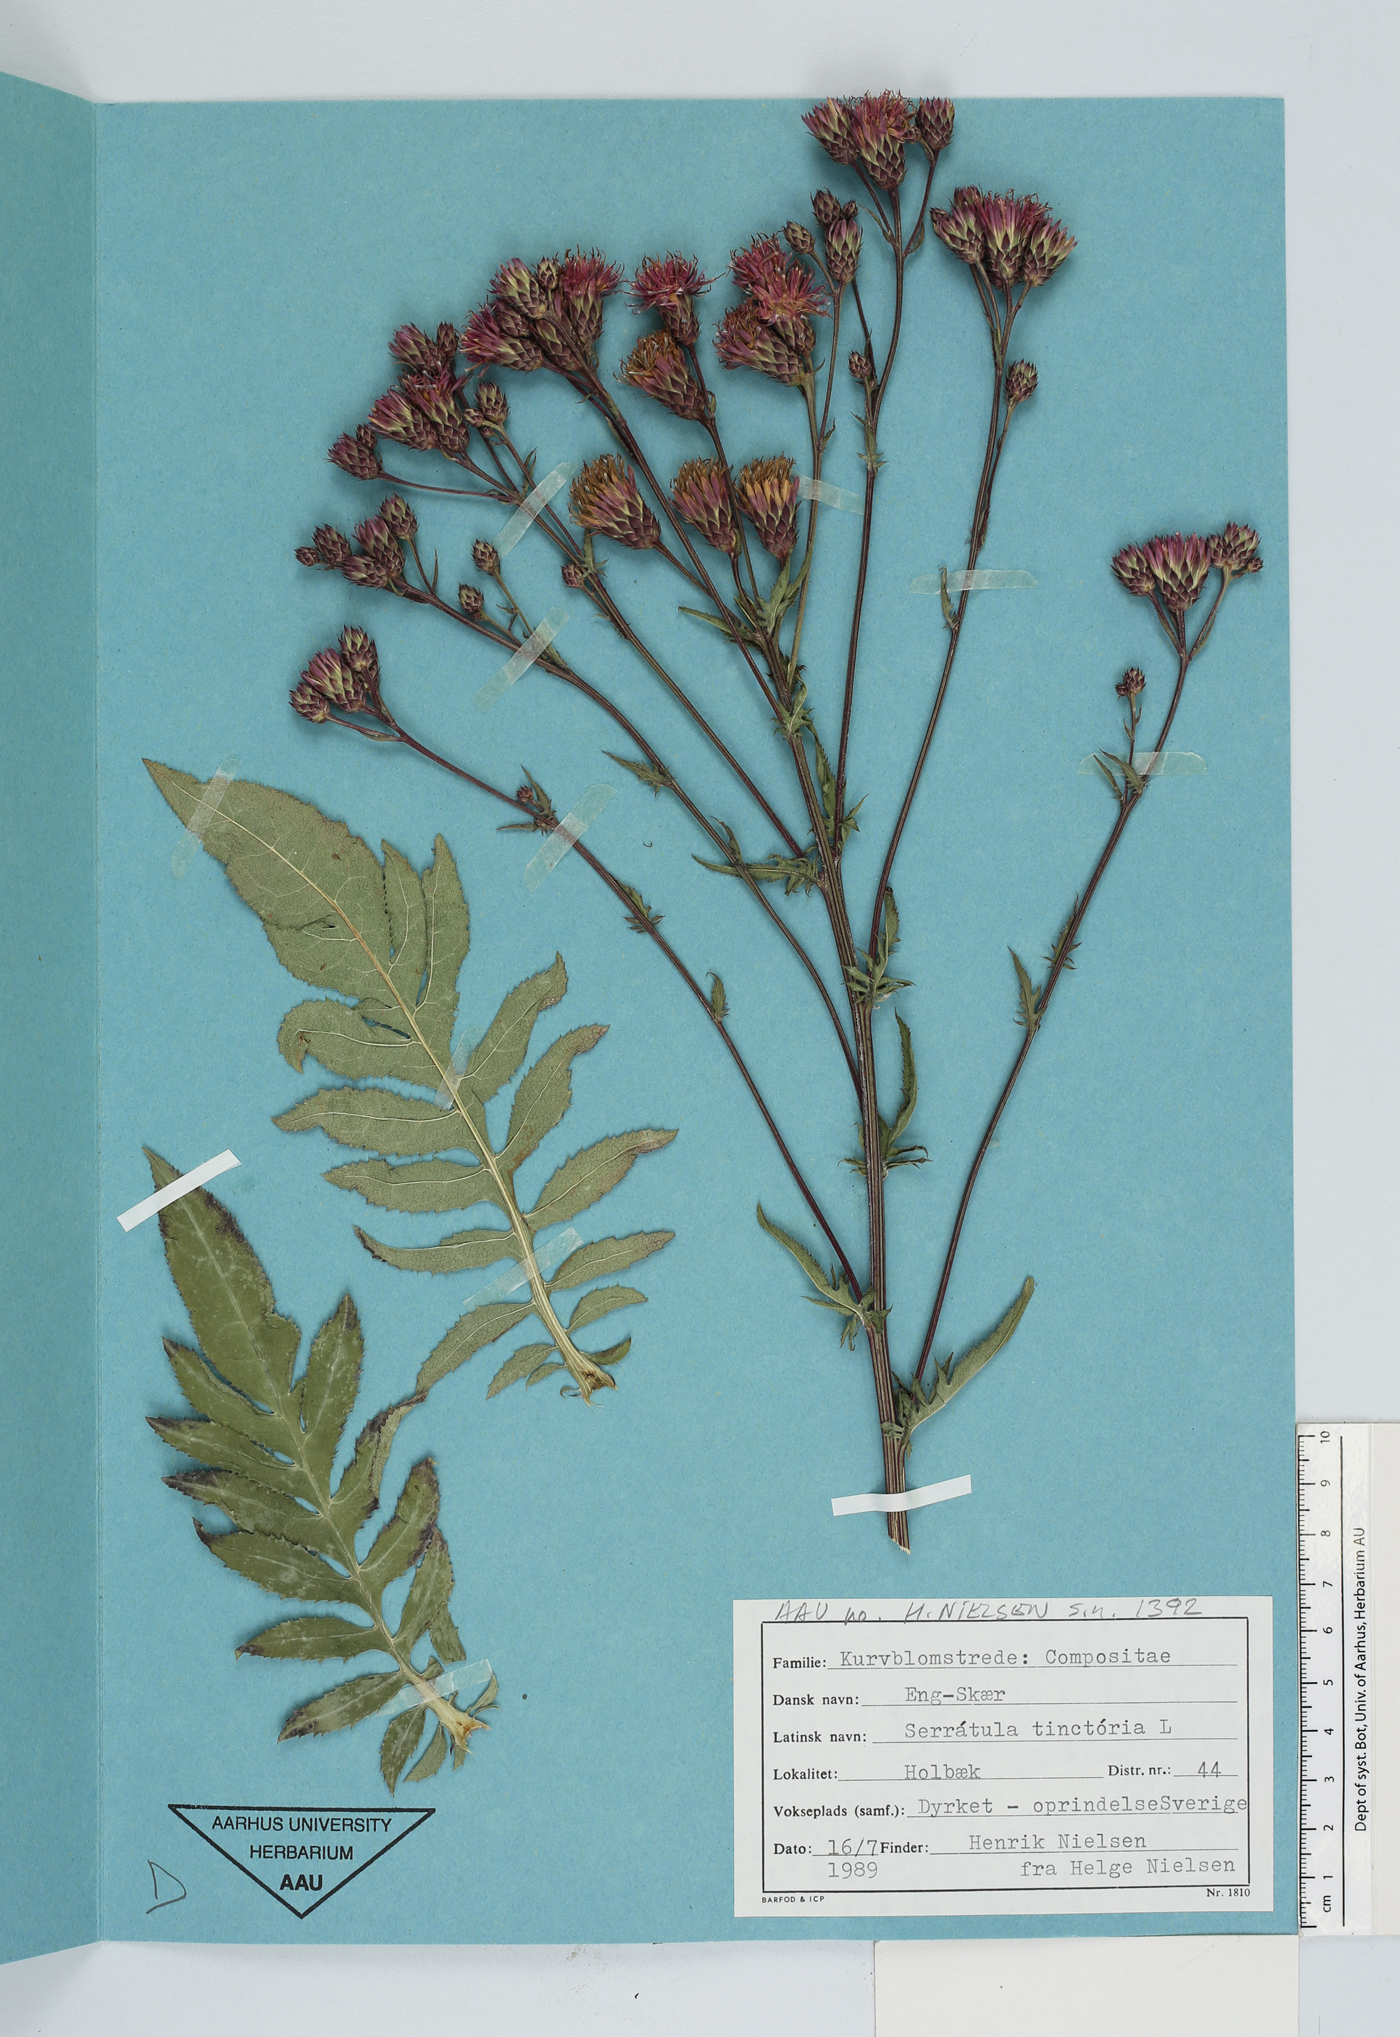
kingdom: Plantae
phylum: Tracheophyta
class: Magnoliopsida
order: Asterales
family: Asteraceae
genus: Serratula
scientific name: Serratula tinctoria
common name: Saw-wort
